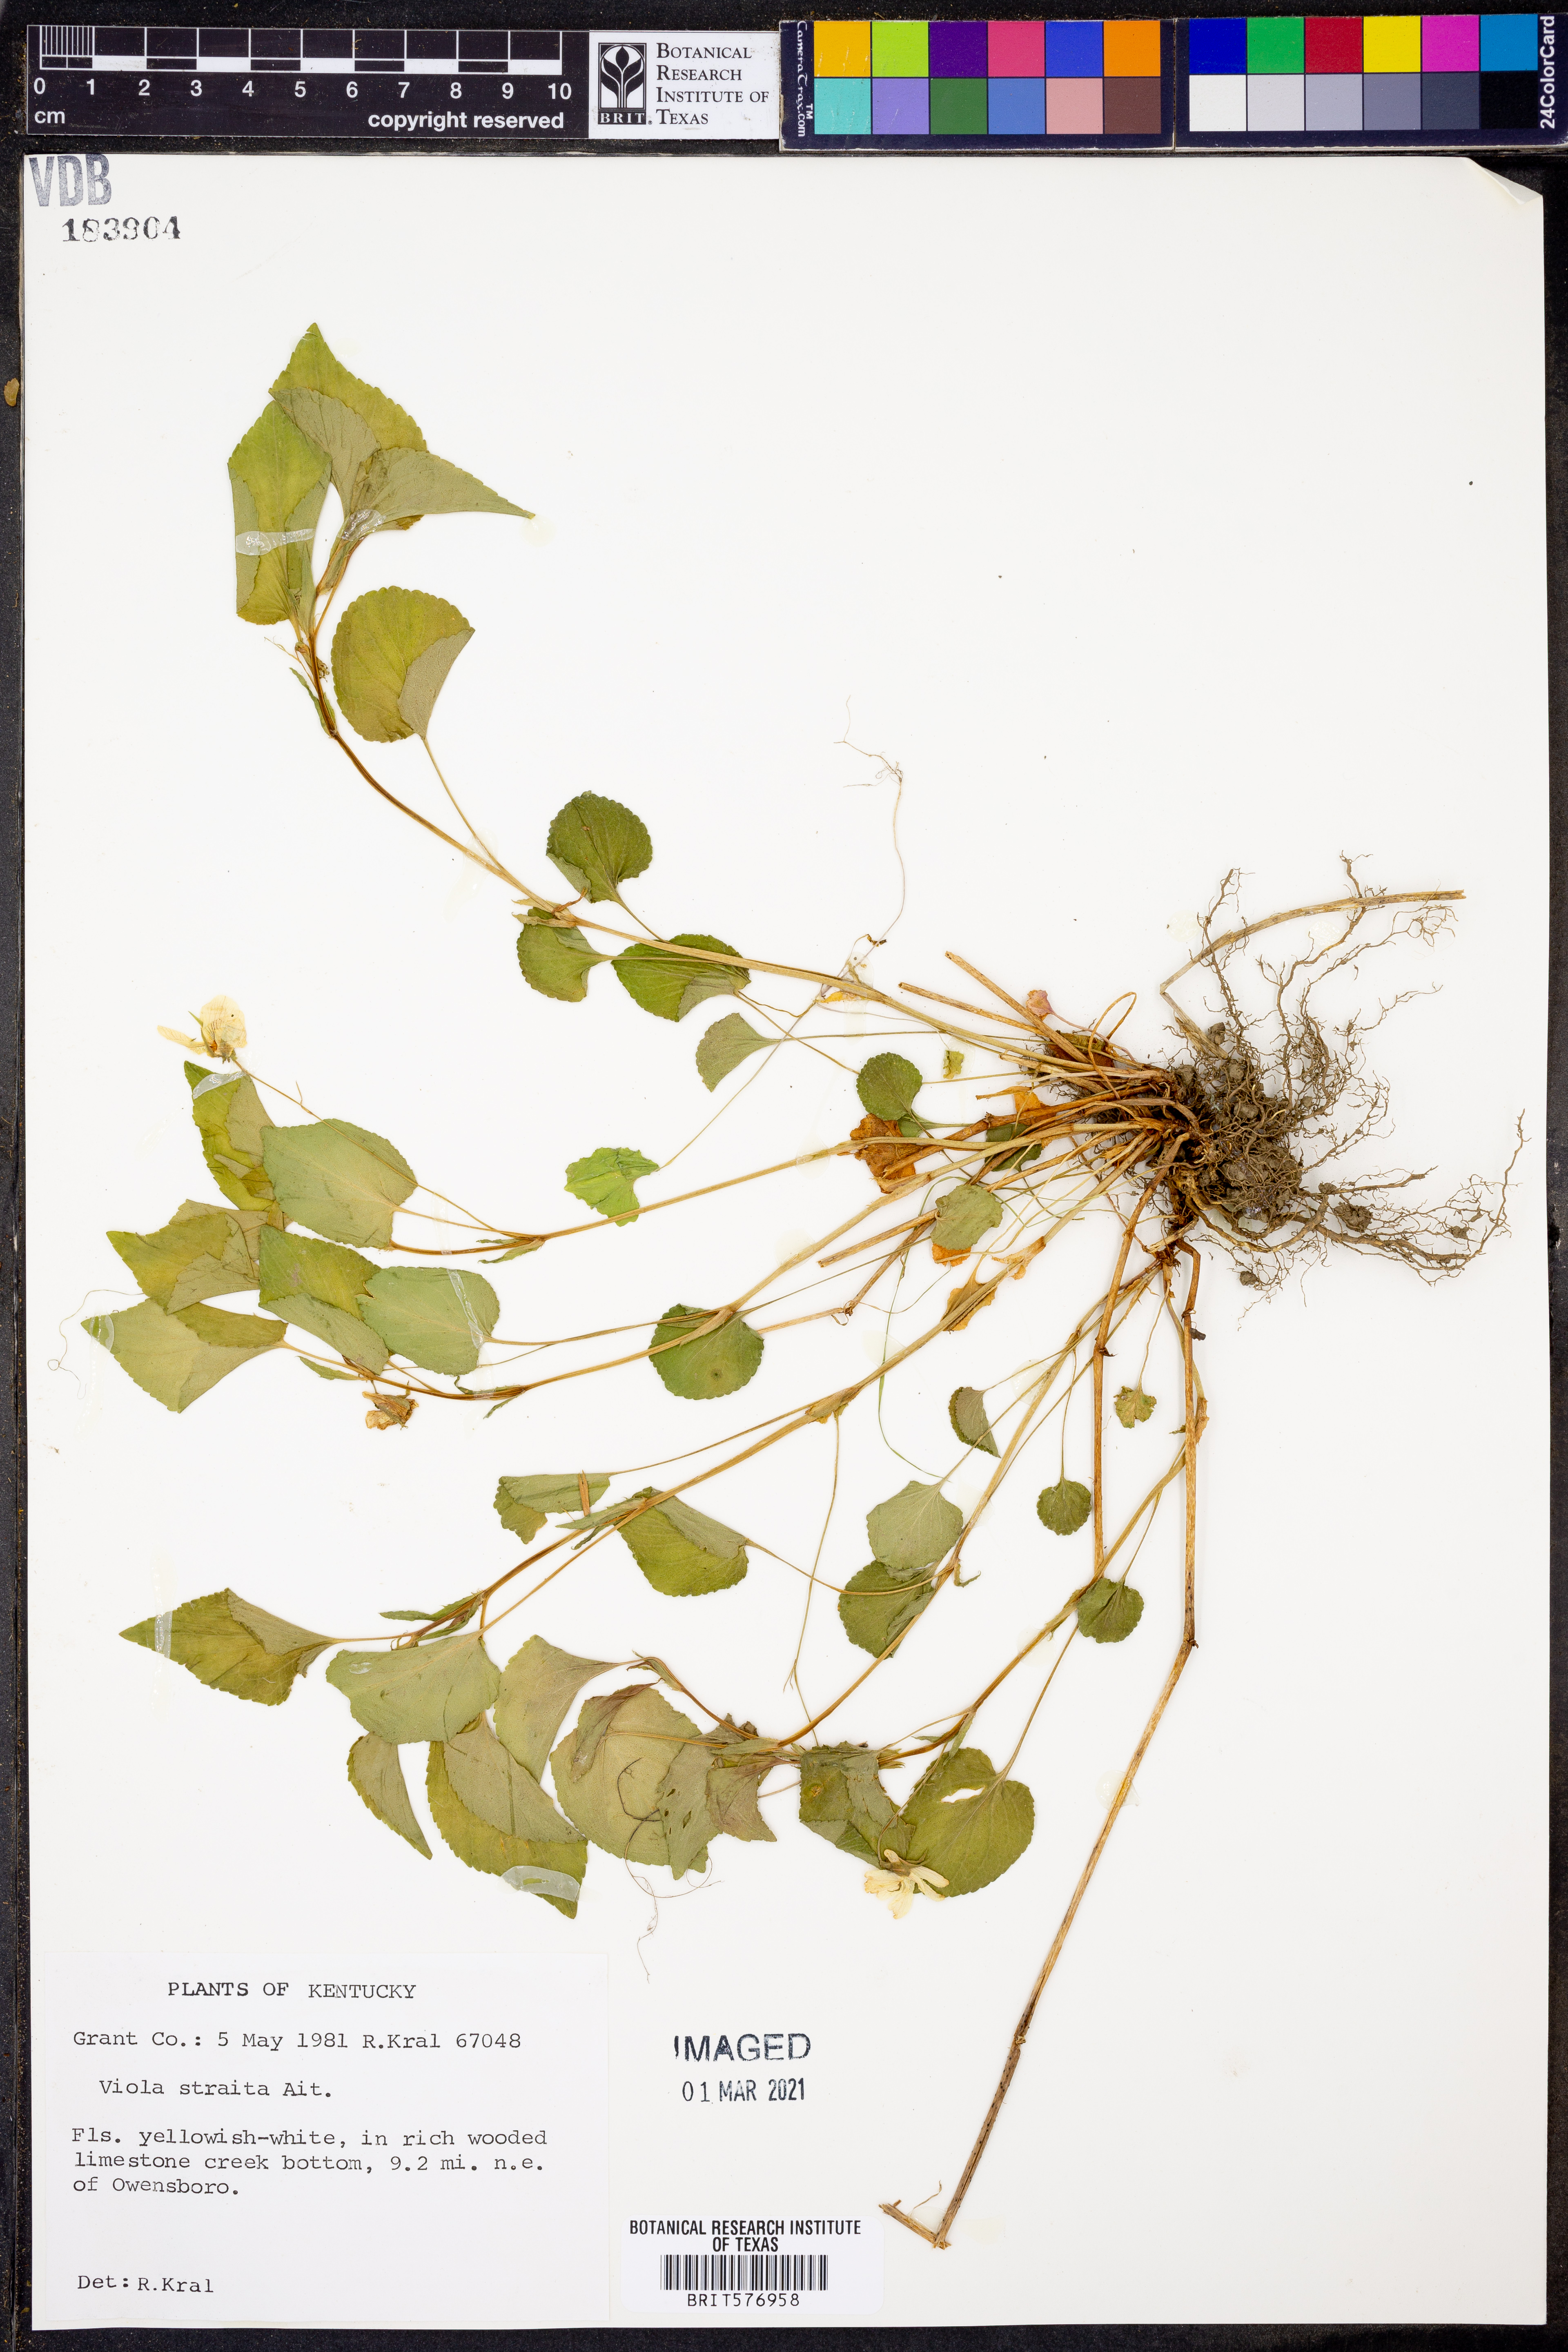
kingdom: Plantae
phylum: Tracheophyta
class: Magnoliopsida
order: Malpighiales
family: Violaceae
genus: Viola
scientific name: Viola striata
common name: Cream violet
